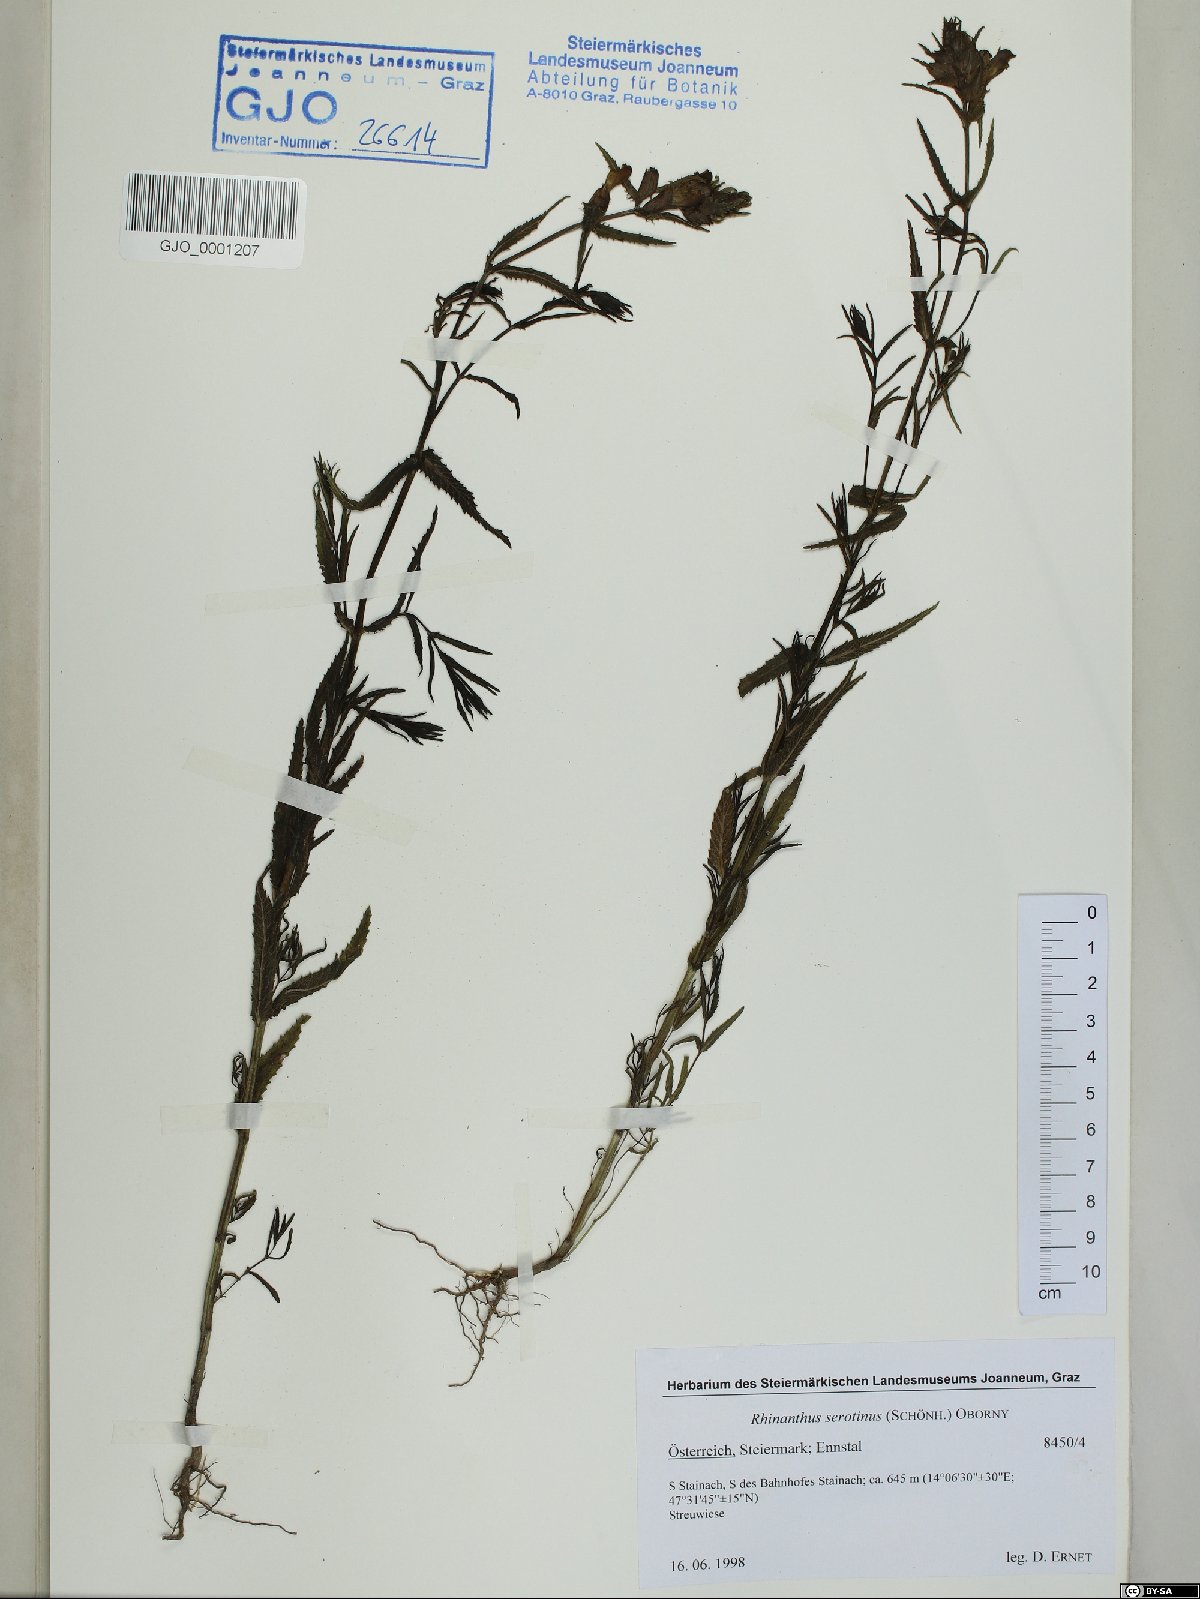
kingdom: Plantae
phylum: Tracheophyta
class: Magnoliopsida
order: Lamiales
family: Orobanchaceae
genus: Rhinanthus
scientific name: Rhinanthus serotinus
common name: Late-flowering yellow rattle
